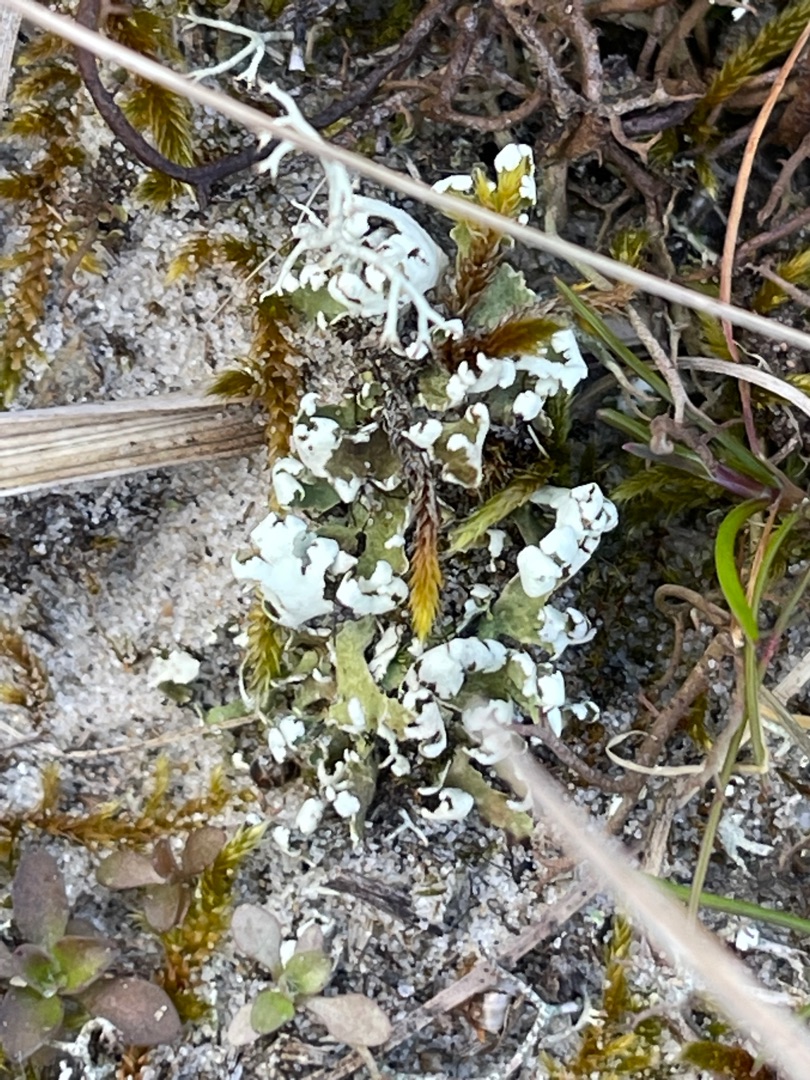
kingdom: Fungi
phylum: Ascomycota
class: Lecanoromycetes
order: Lecanorales
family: Cladoniaceae
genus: Cladonia
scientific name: Cladonia foliacea
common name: Fliget bægerlav
